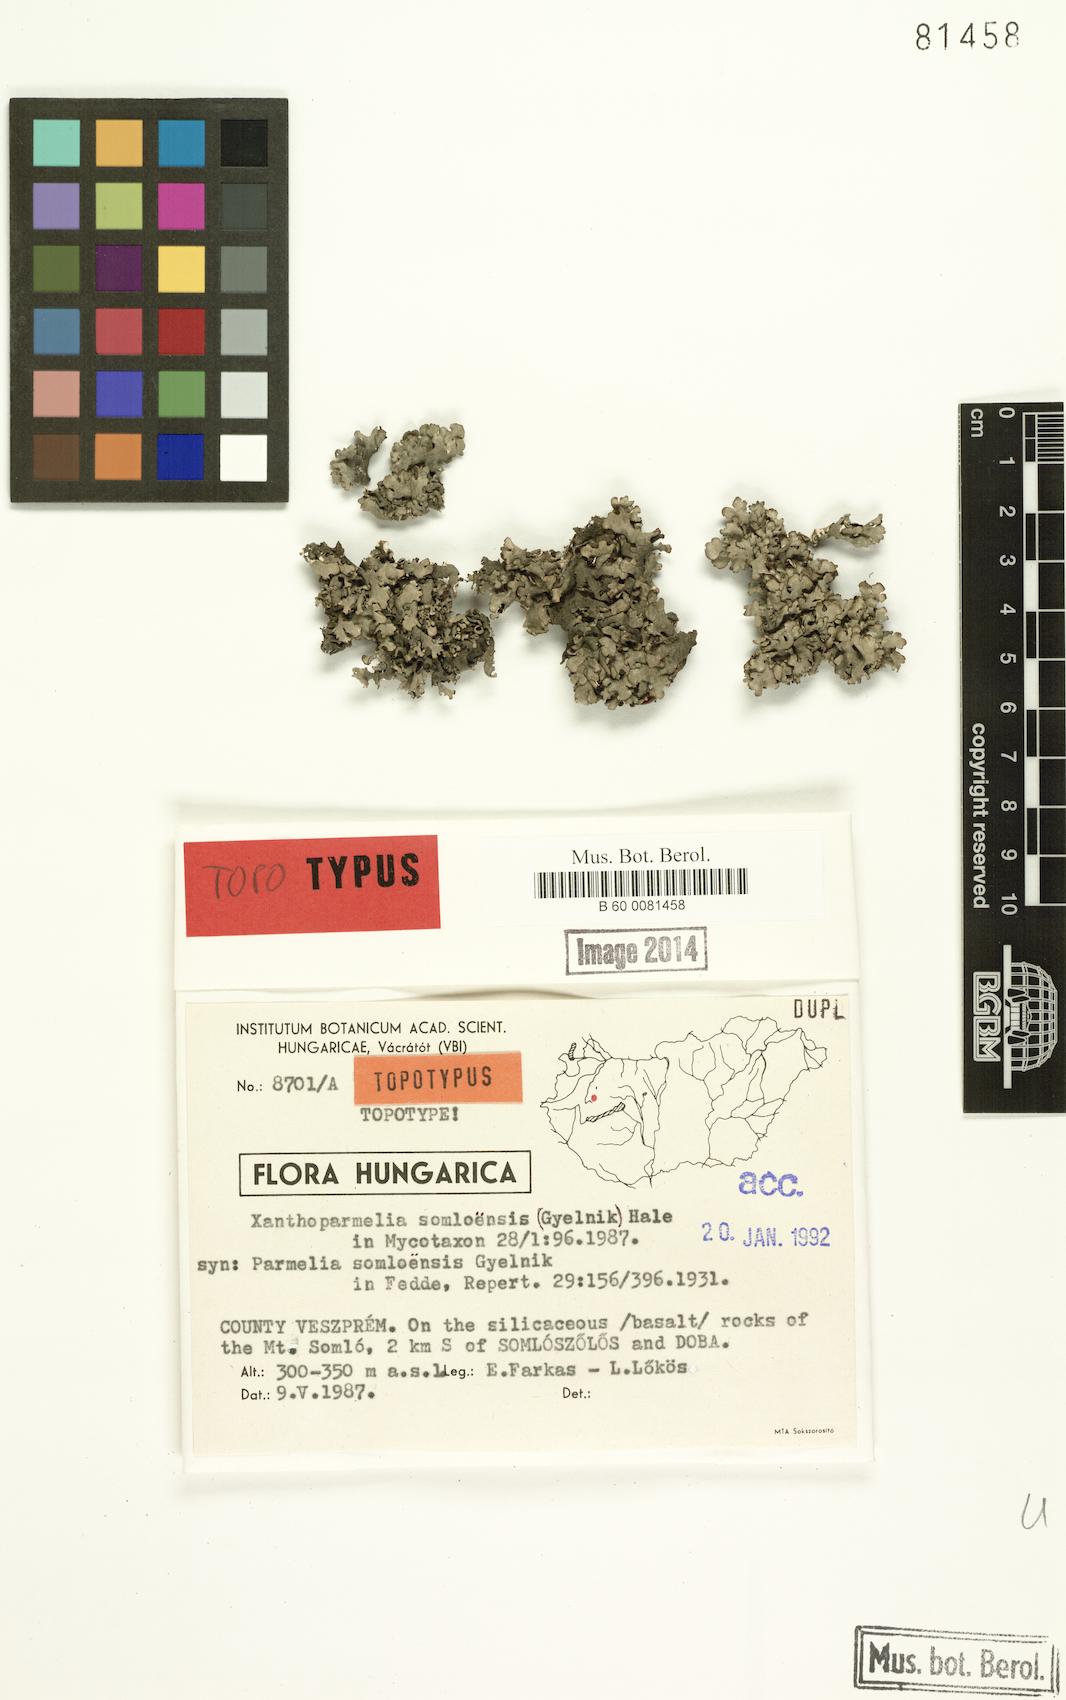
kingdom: Fungi
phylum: Ascomycota
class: Lecanoromycetes
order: Lecanorales
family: Parmeliaceae
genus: Xanthoparmelia
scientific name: Xanthoparmelia stenophylla
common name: Shingled rock shield
